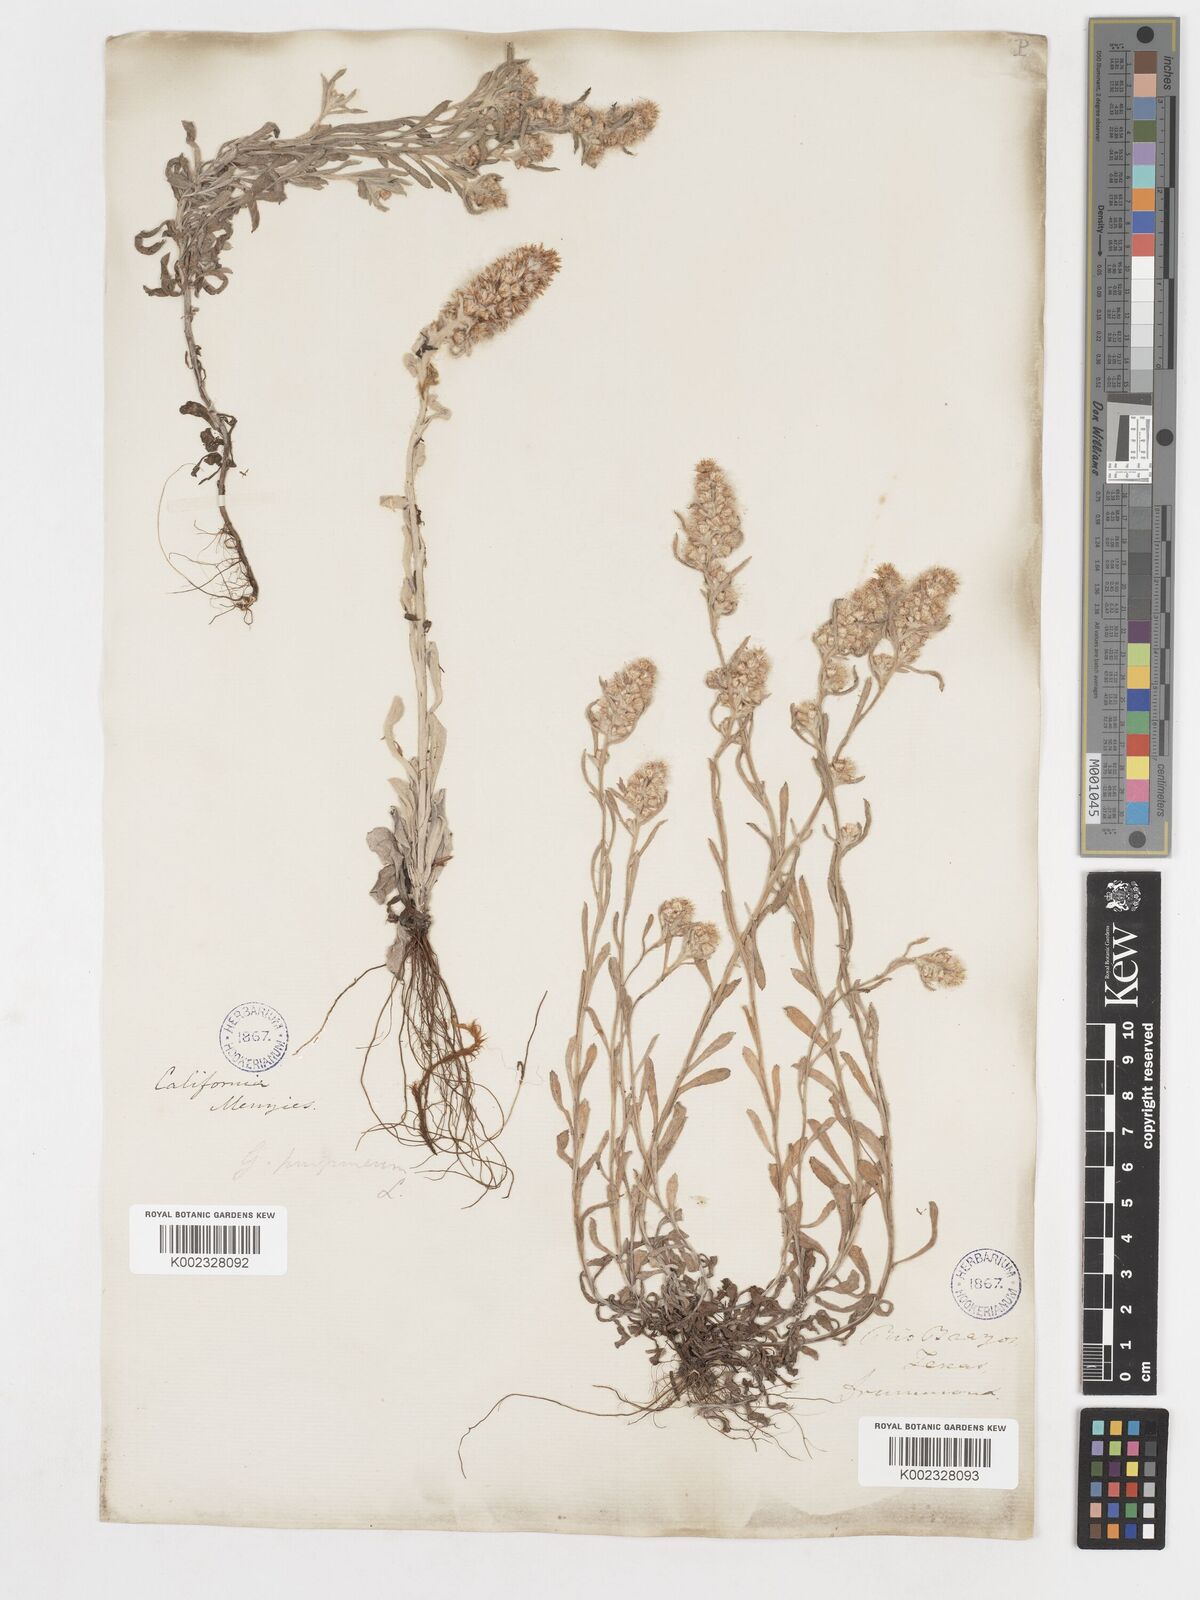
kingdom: Plantae
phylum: Tracheophyta
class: Magnoliopsida
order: Asterales
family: Asteraceae
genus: Gamochaeta
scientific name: Gamochaeta purpurea
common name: Purple cudweed
